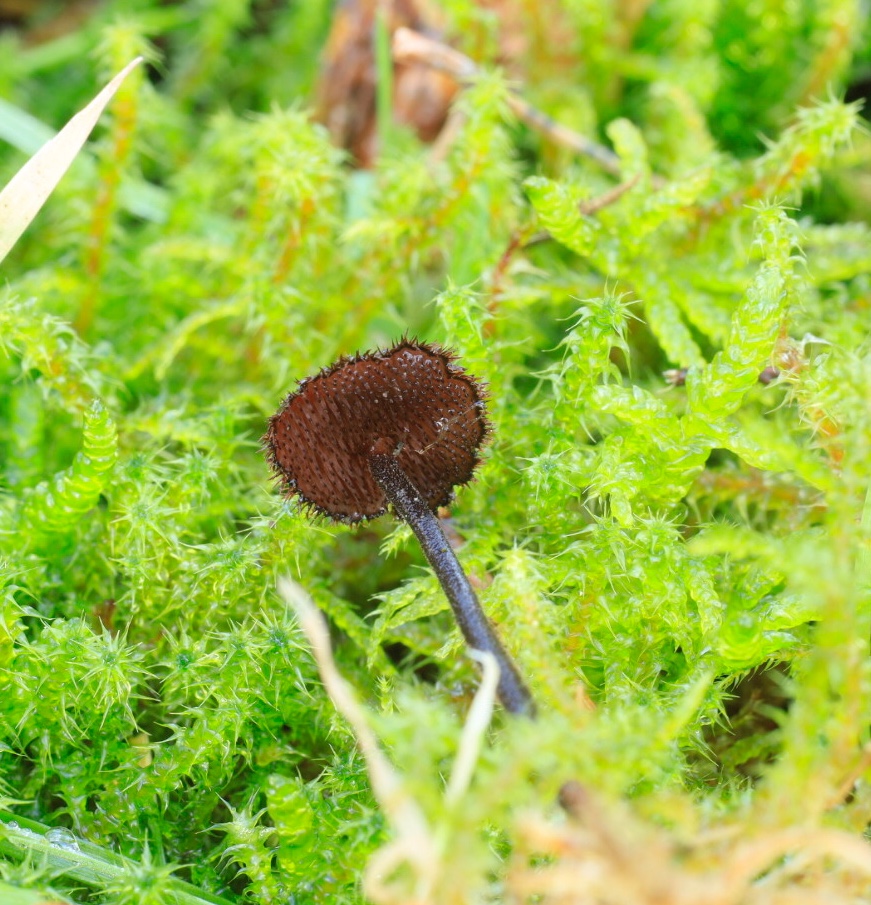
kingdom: Fungi
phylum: Basidiomycota
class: Agaricomycetes
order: Russulales
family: Auriscalpiaceae
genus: Auriscalpium
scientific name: Auriscalpium vulgare
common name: koglepigsvamp
